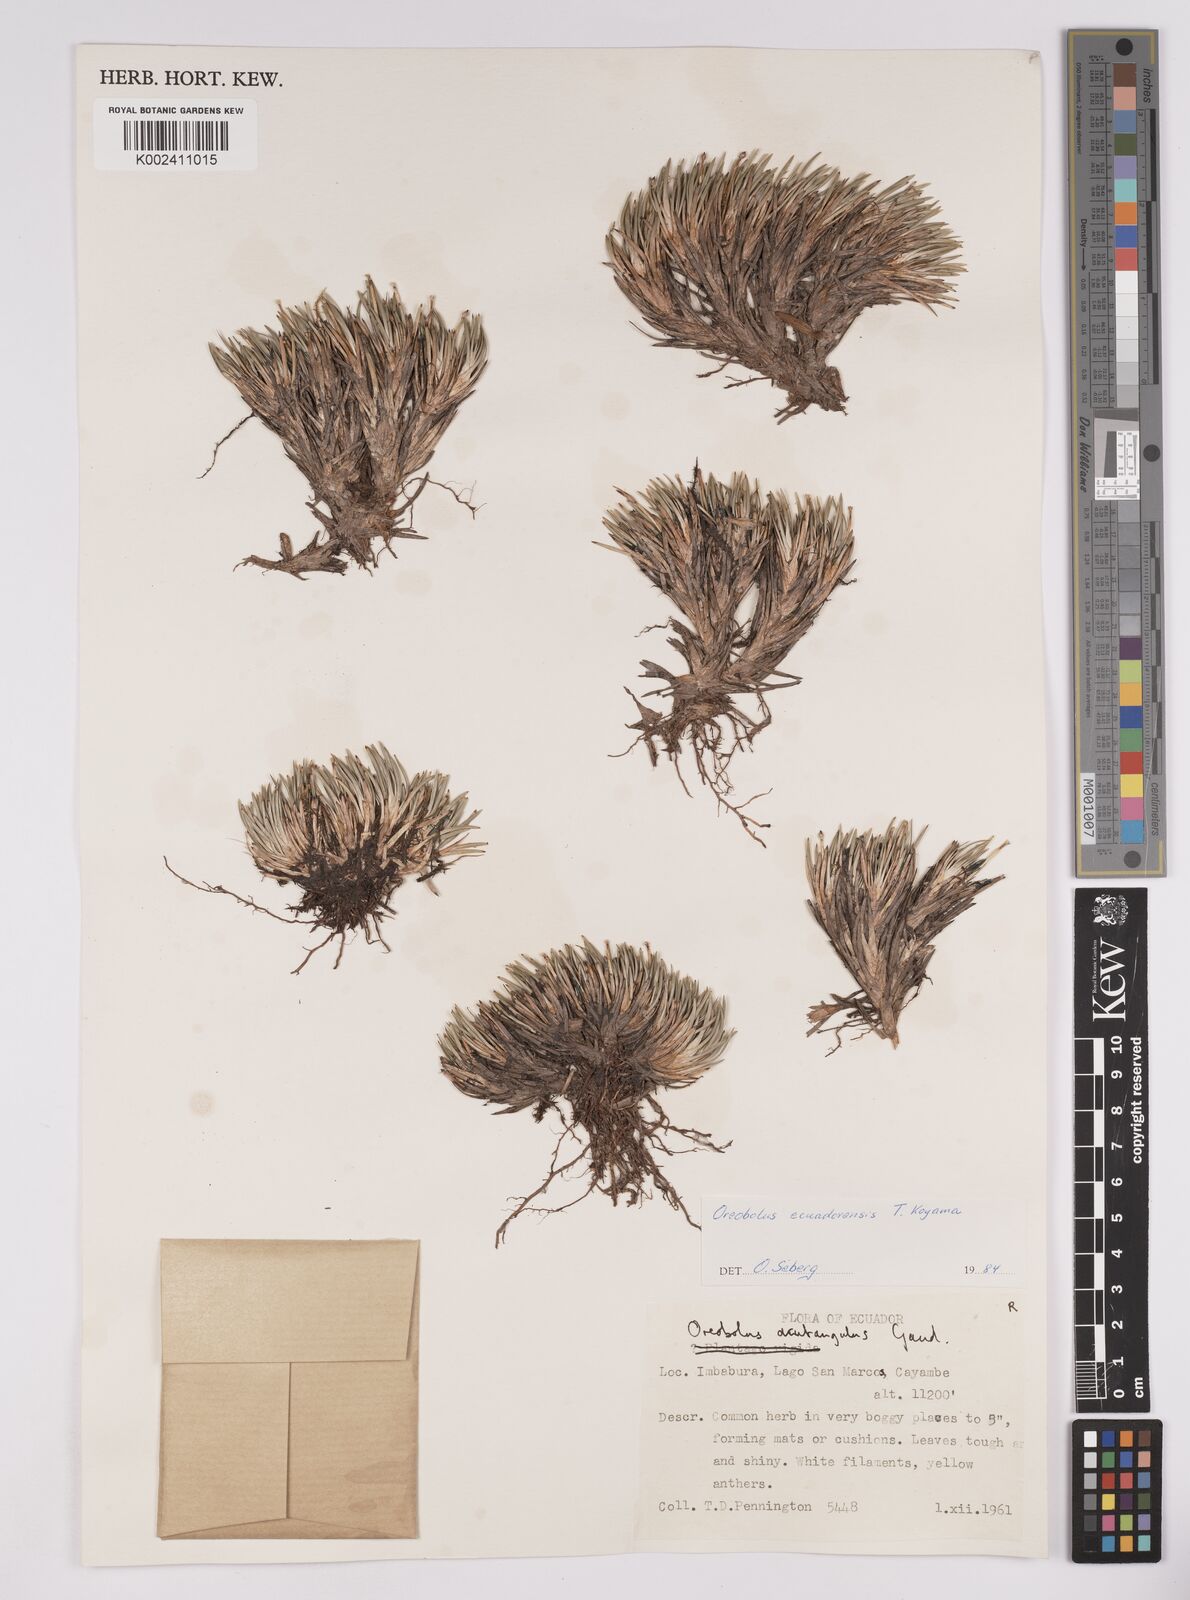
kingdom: Plantae
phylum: Tracheophyta
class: Liliopsida
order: Poales
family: Cyperaceae
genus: Oreobolus
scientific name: Oreobolus obtusangulus
